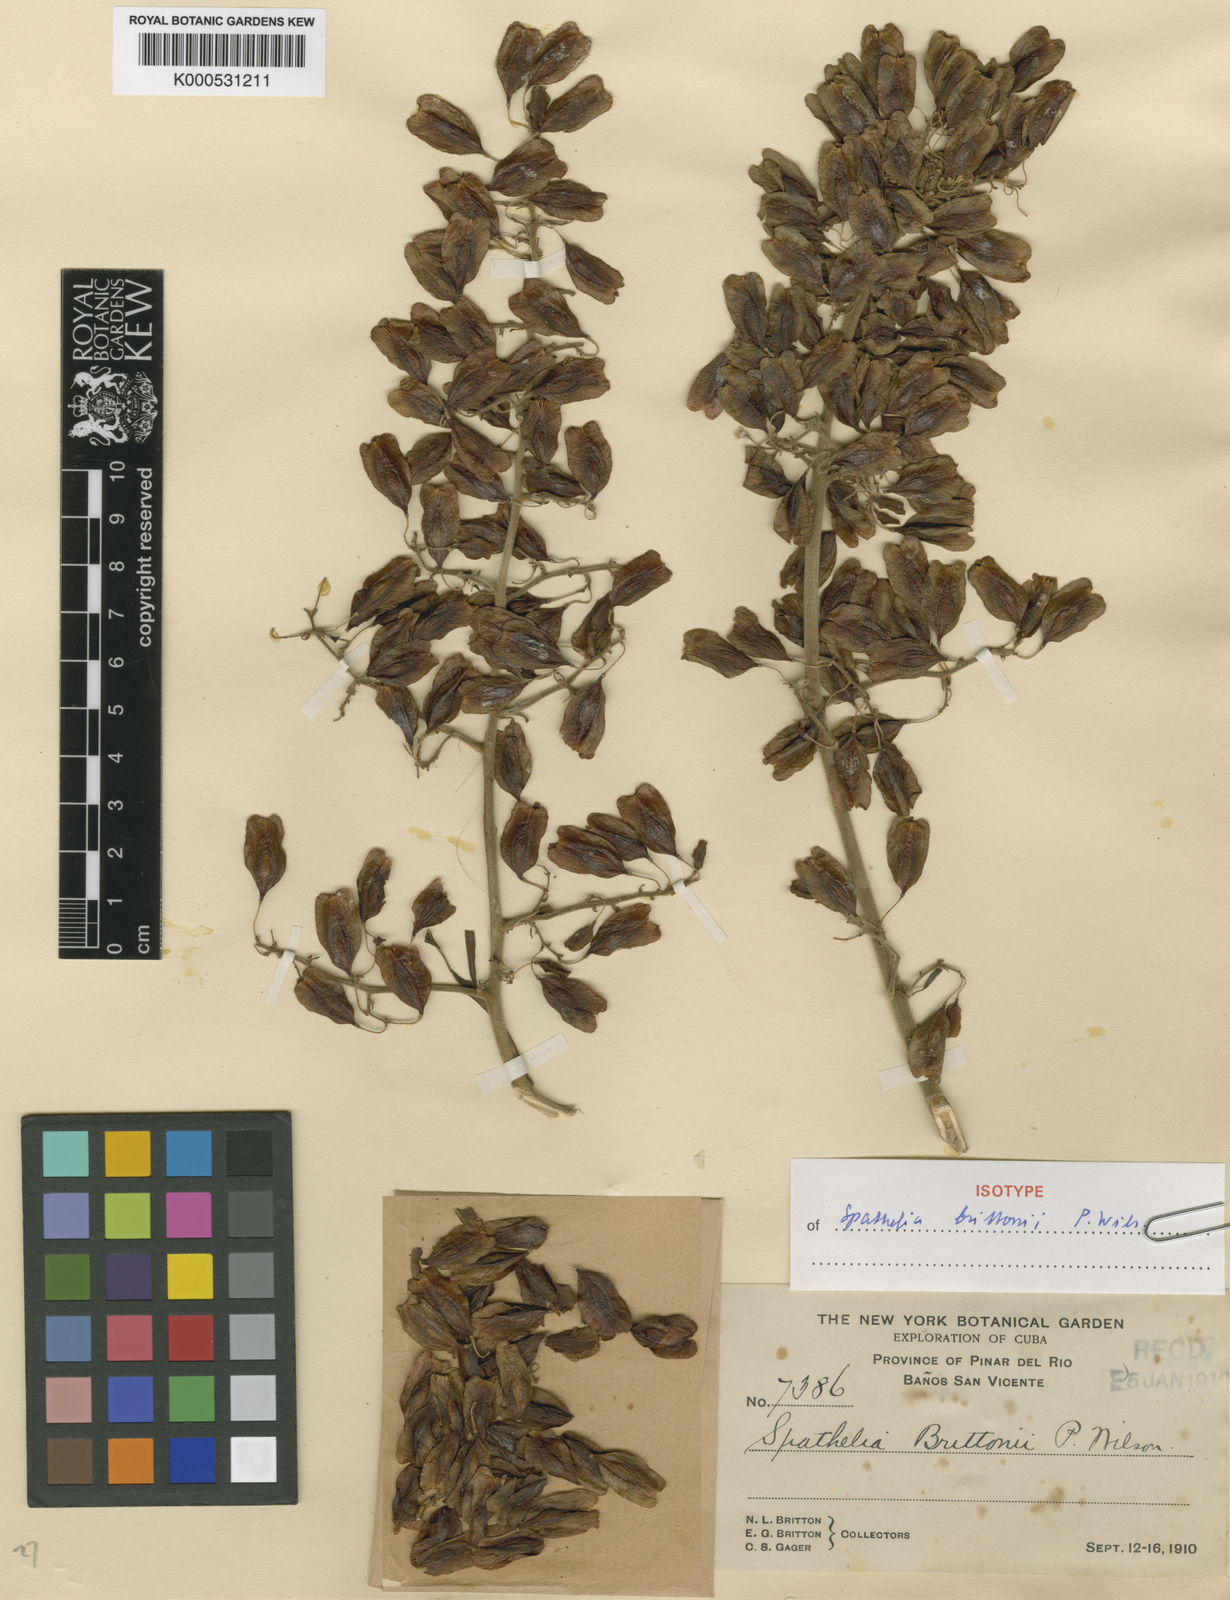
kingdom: Plantae
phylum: Tracheophyta
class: Magnoliopsida
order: Sapindales
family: Rutaceae
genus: Spathelia
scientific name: Spathelia brittonii
